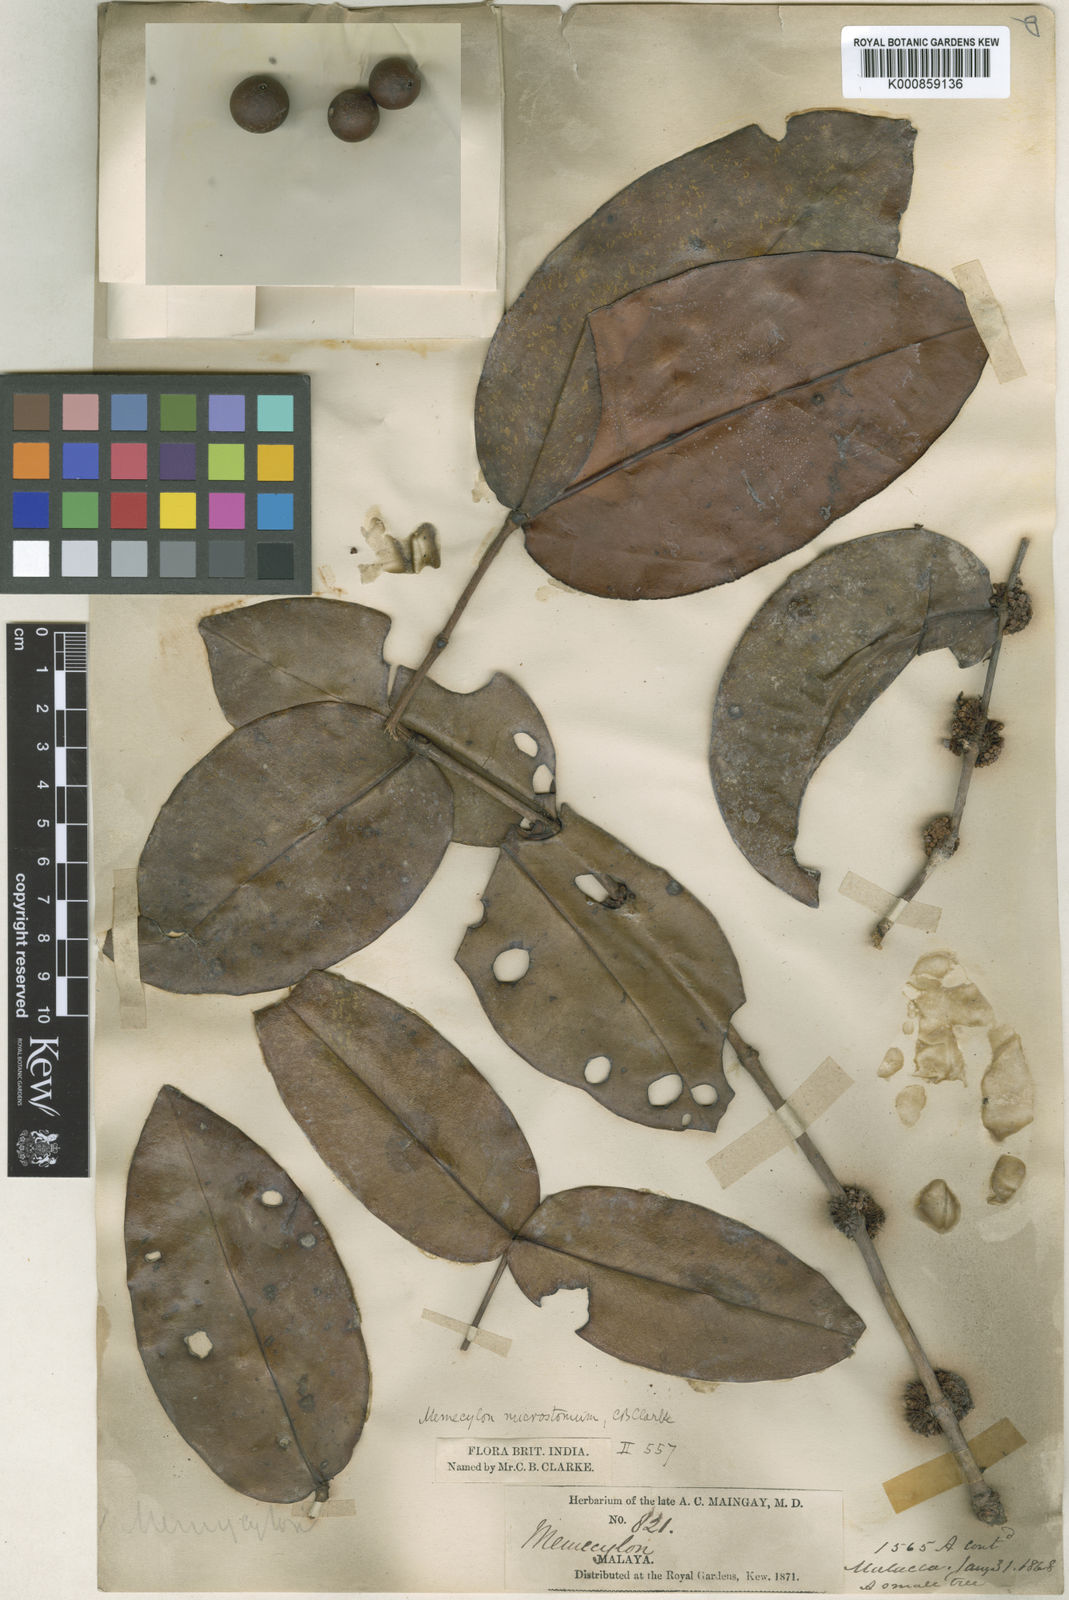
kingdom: Plantae
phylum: Tracheophyta
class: Magnoliopsida
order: Myrtales
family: Melastomataceae
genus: Memecylon
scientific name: Memecylon amplexicaule
